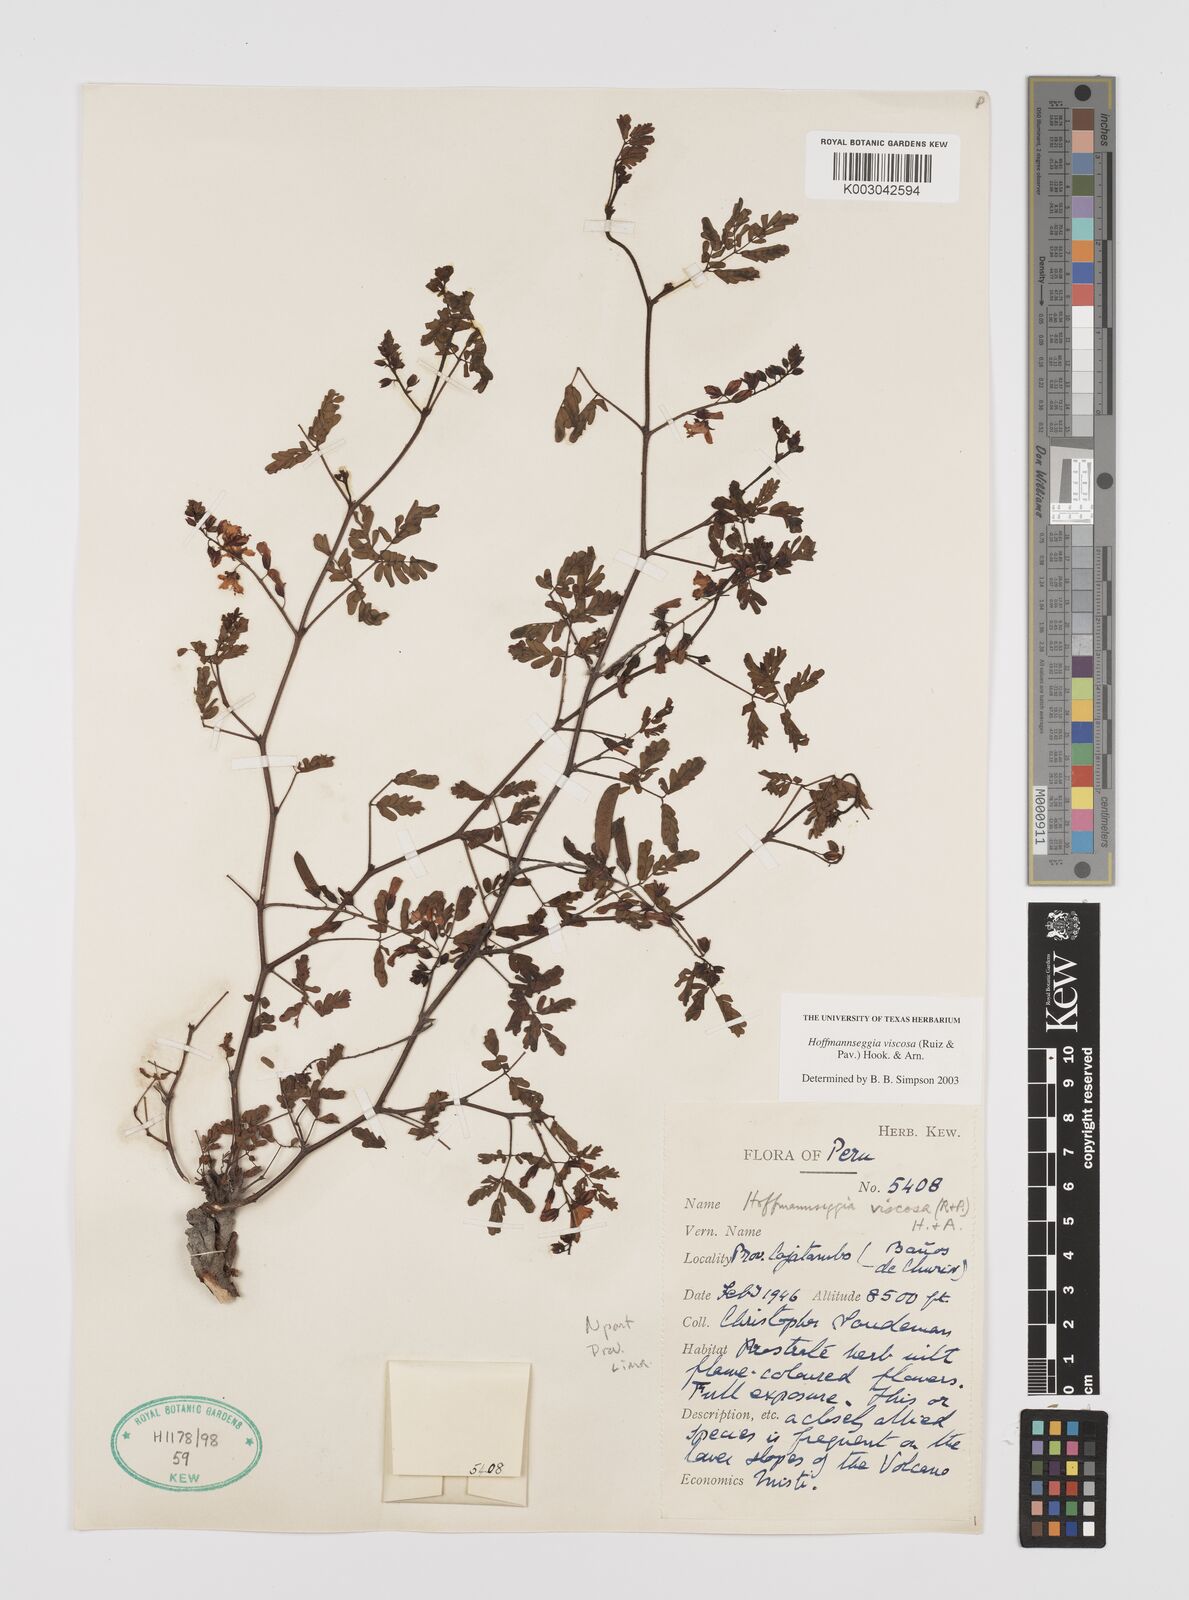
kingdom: Plantae
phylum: Tracheophyta
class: Magnoliopsida
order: Fabales
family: Fabaceae
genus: Hoffmannseggia
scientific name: Hoffmannseggia viscosa
